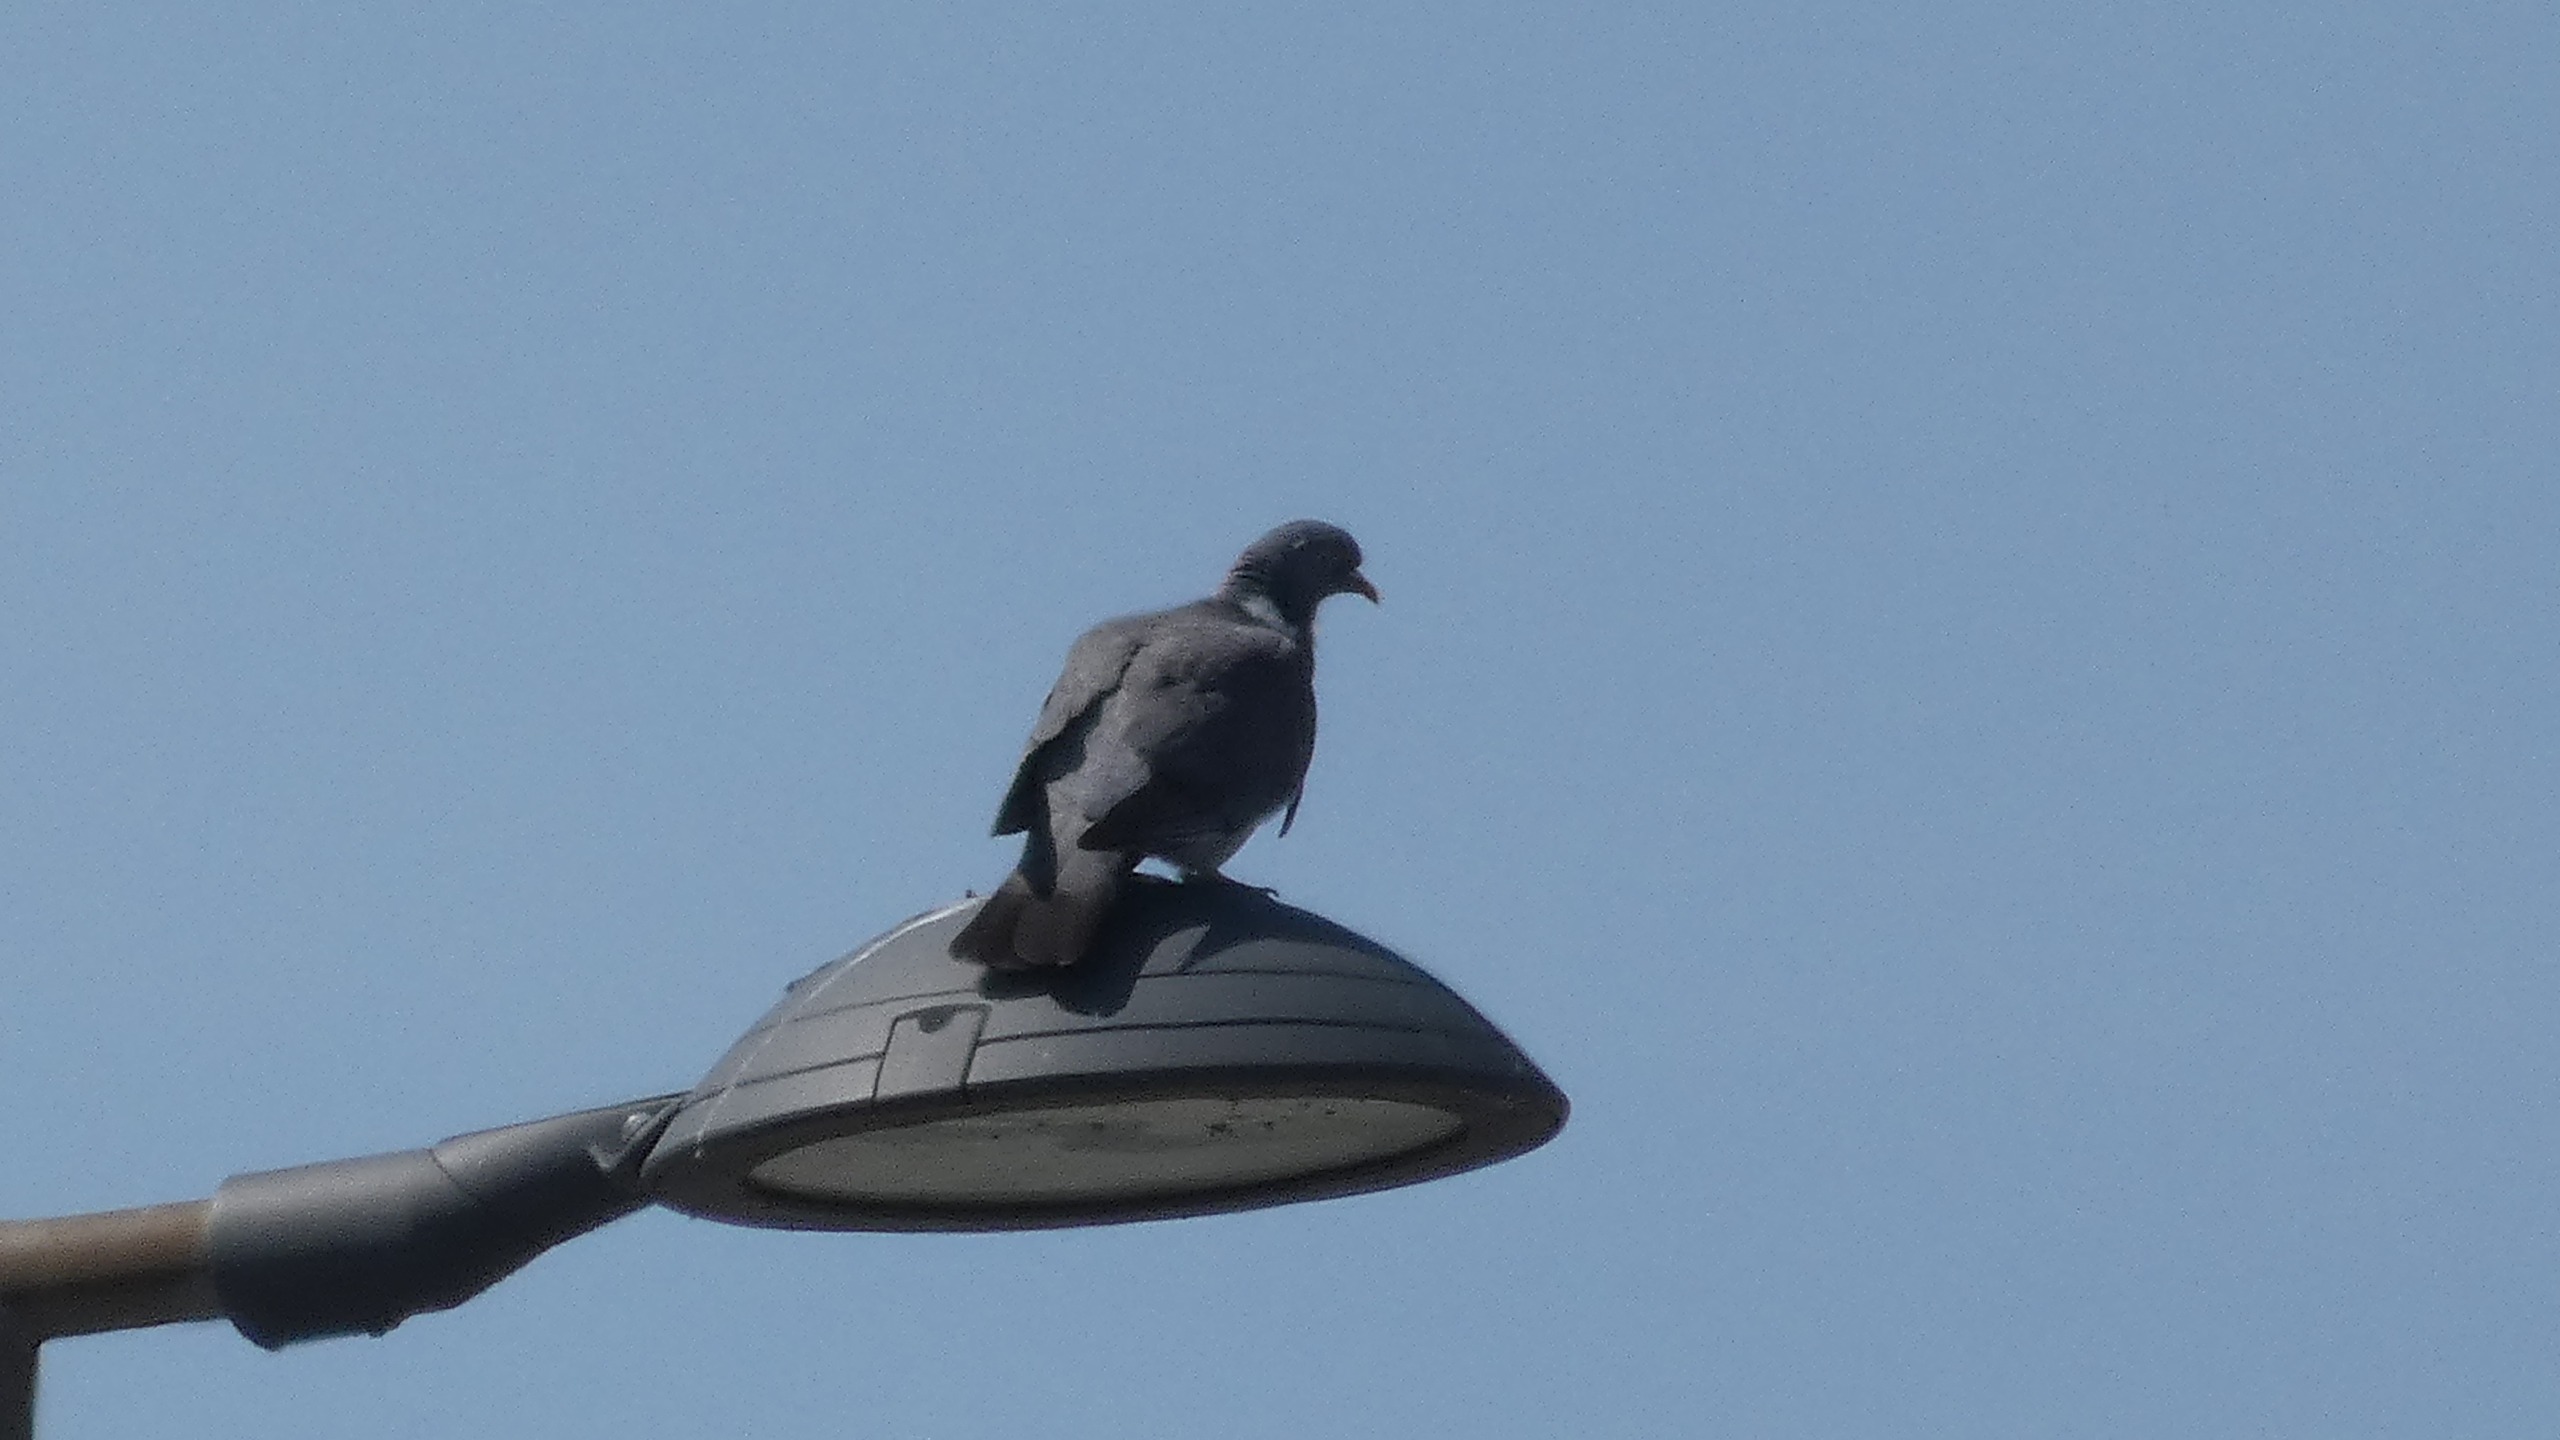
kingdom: Animalia
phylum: Chordata
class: Aves
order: Columbiformes
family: Columbidae
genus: Columba
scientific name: Columba palumbus
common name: Ringdue
